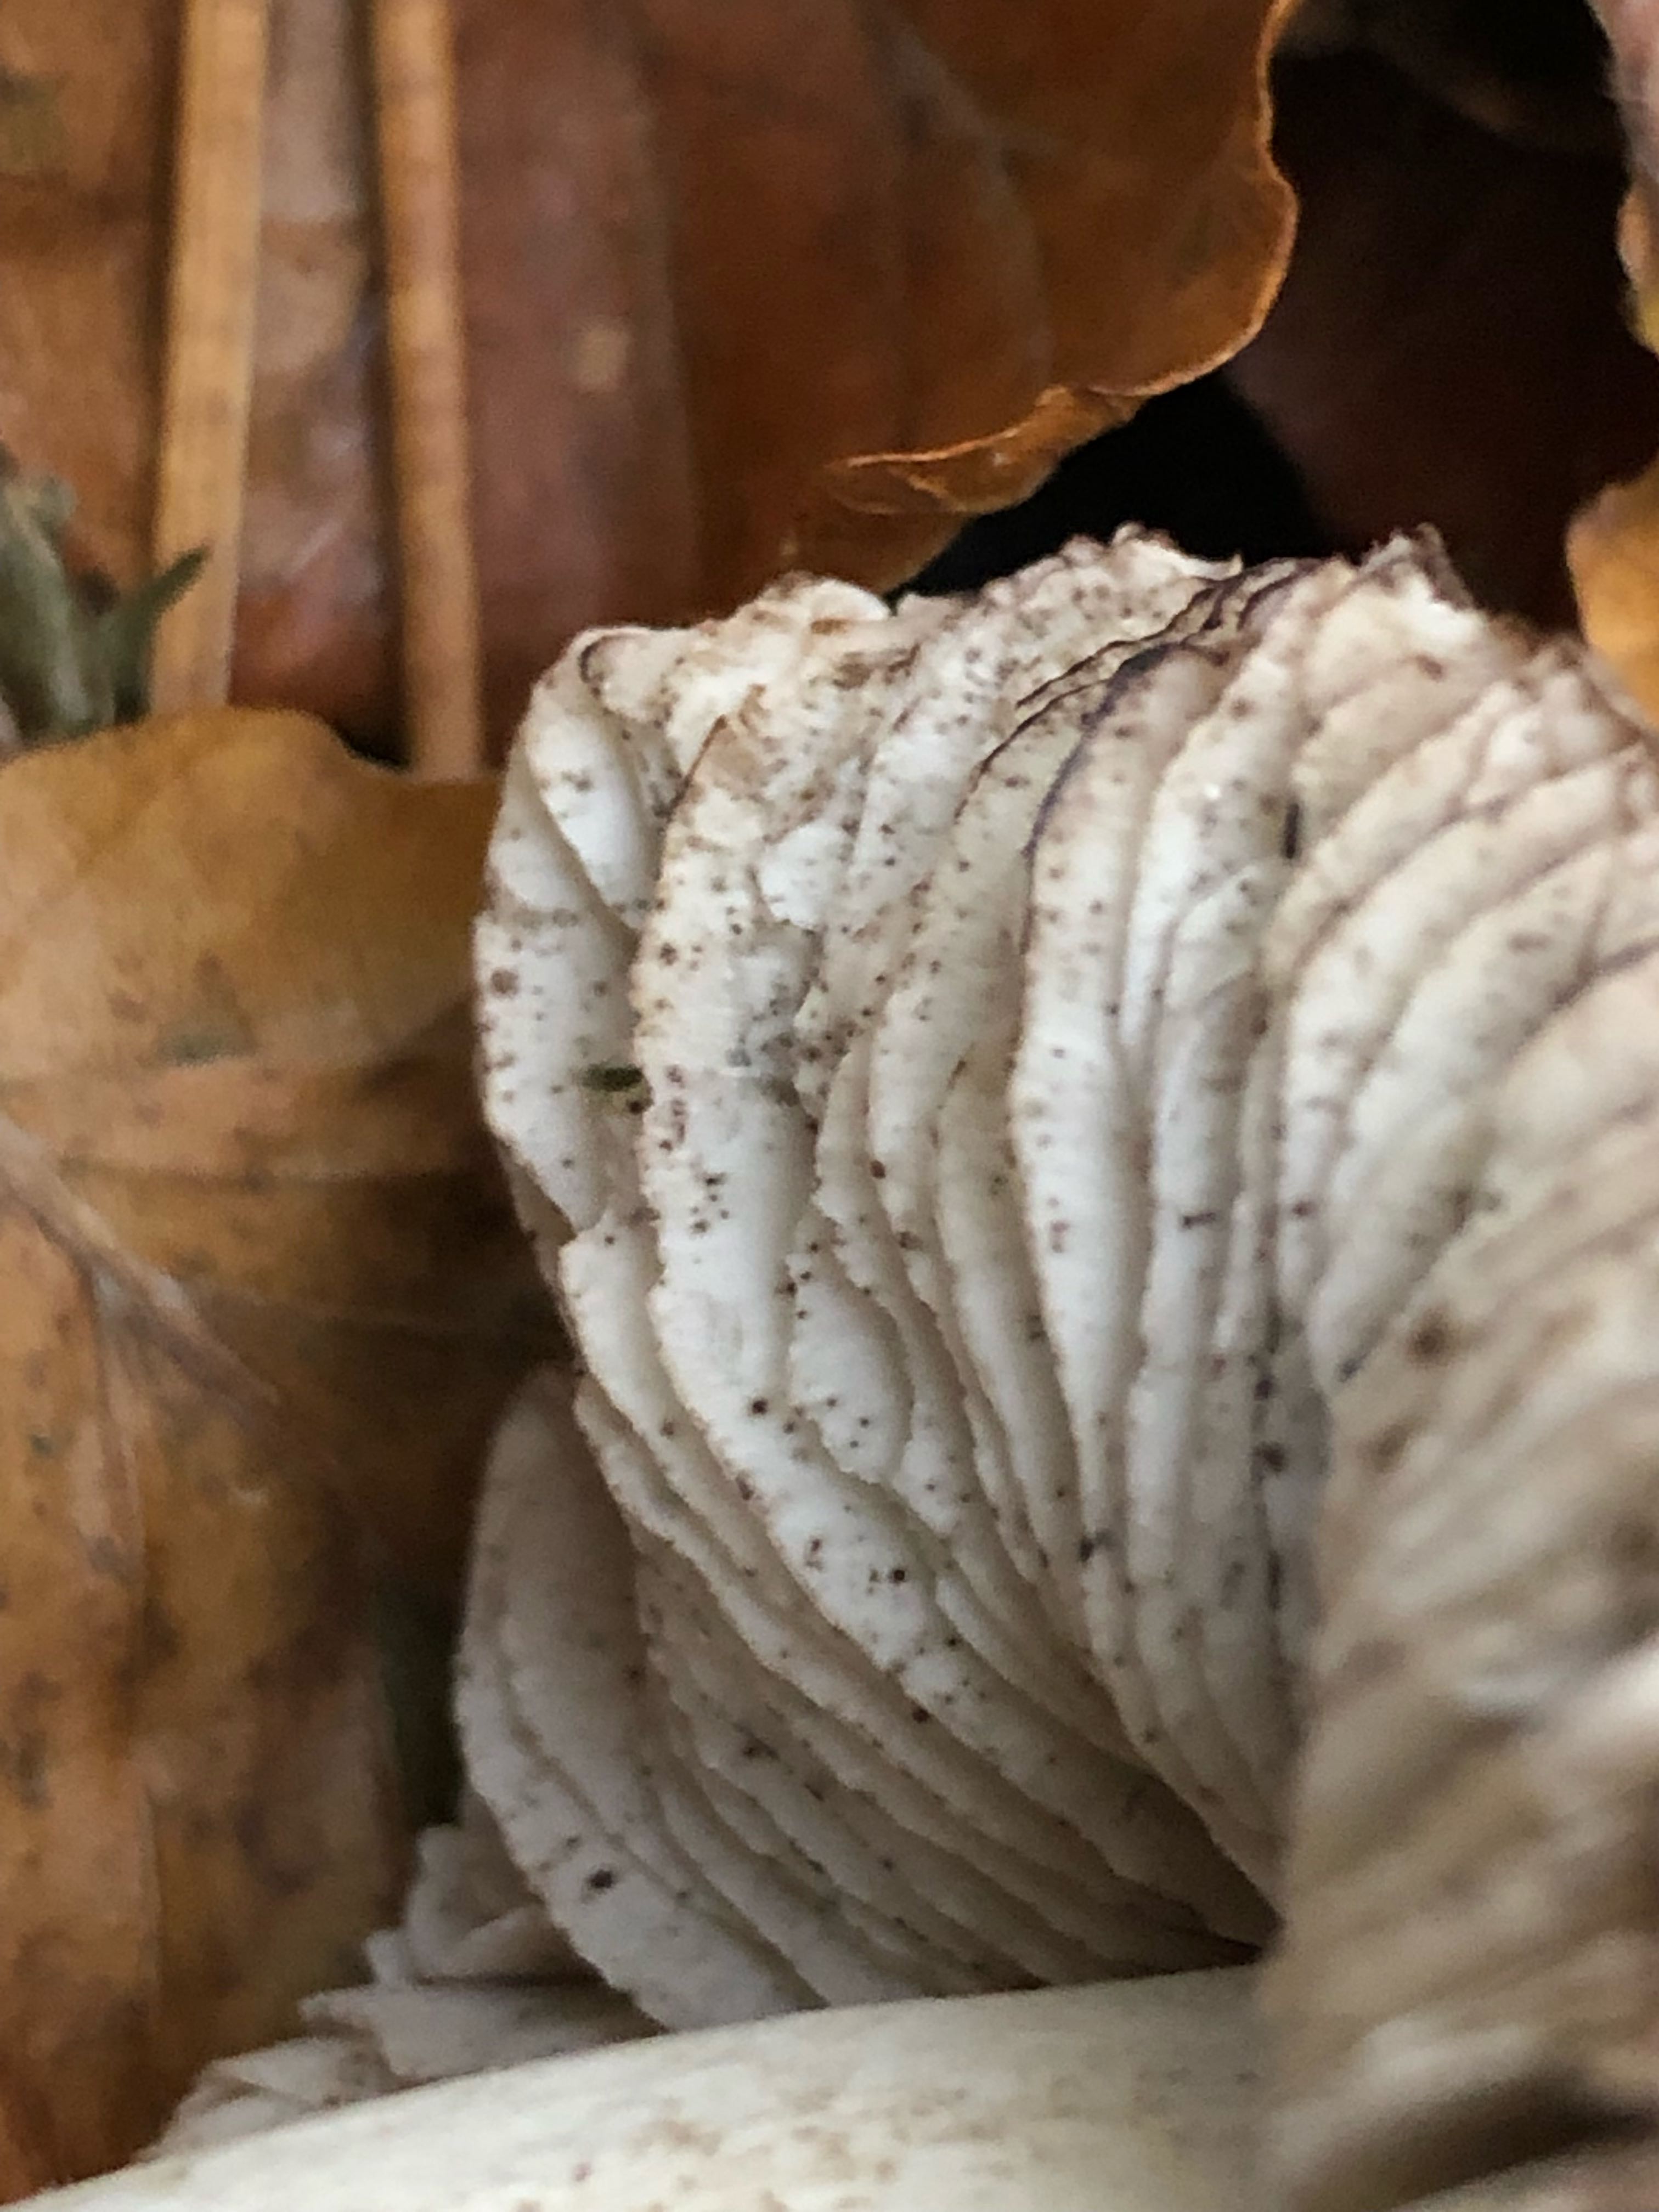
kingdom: Fungi
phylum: Basidiomycota
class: Agaricomycetes
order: Agaricales
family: Tricholomataceae
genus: Tricholoma
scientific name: Tricholoma sciodes
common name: stribet ridderhat
